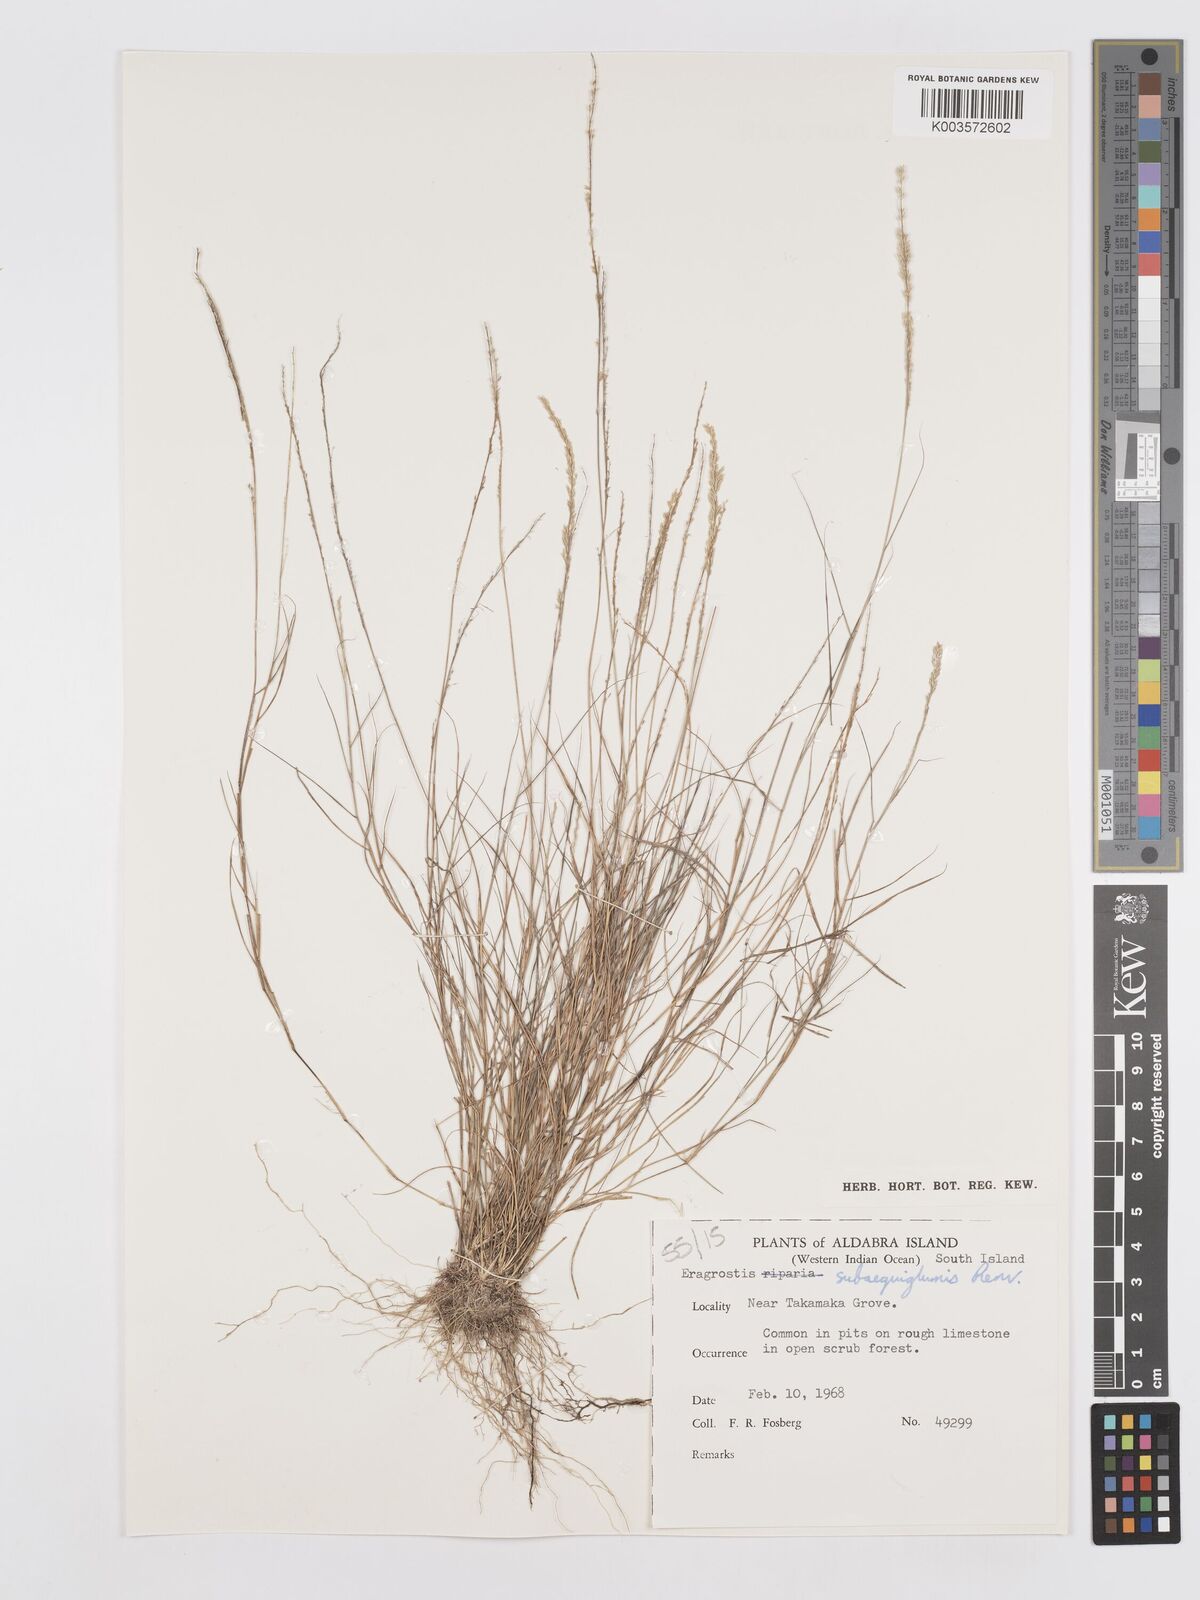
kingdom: Plantae
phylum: Tracheophyta
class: Liliopsida
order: Poales
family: Poaceae
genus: Eragrostis
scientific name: Eragrostis subaequiglumis
